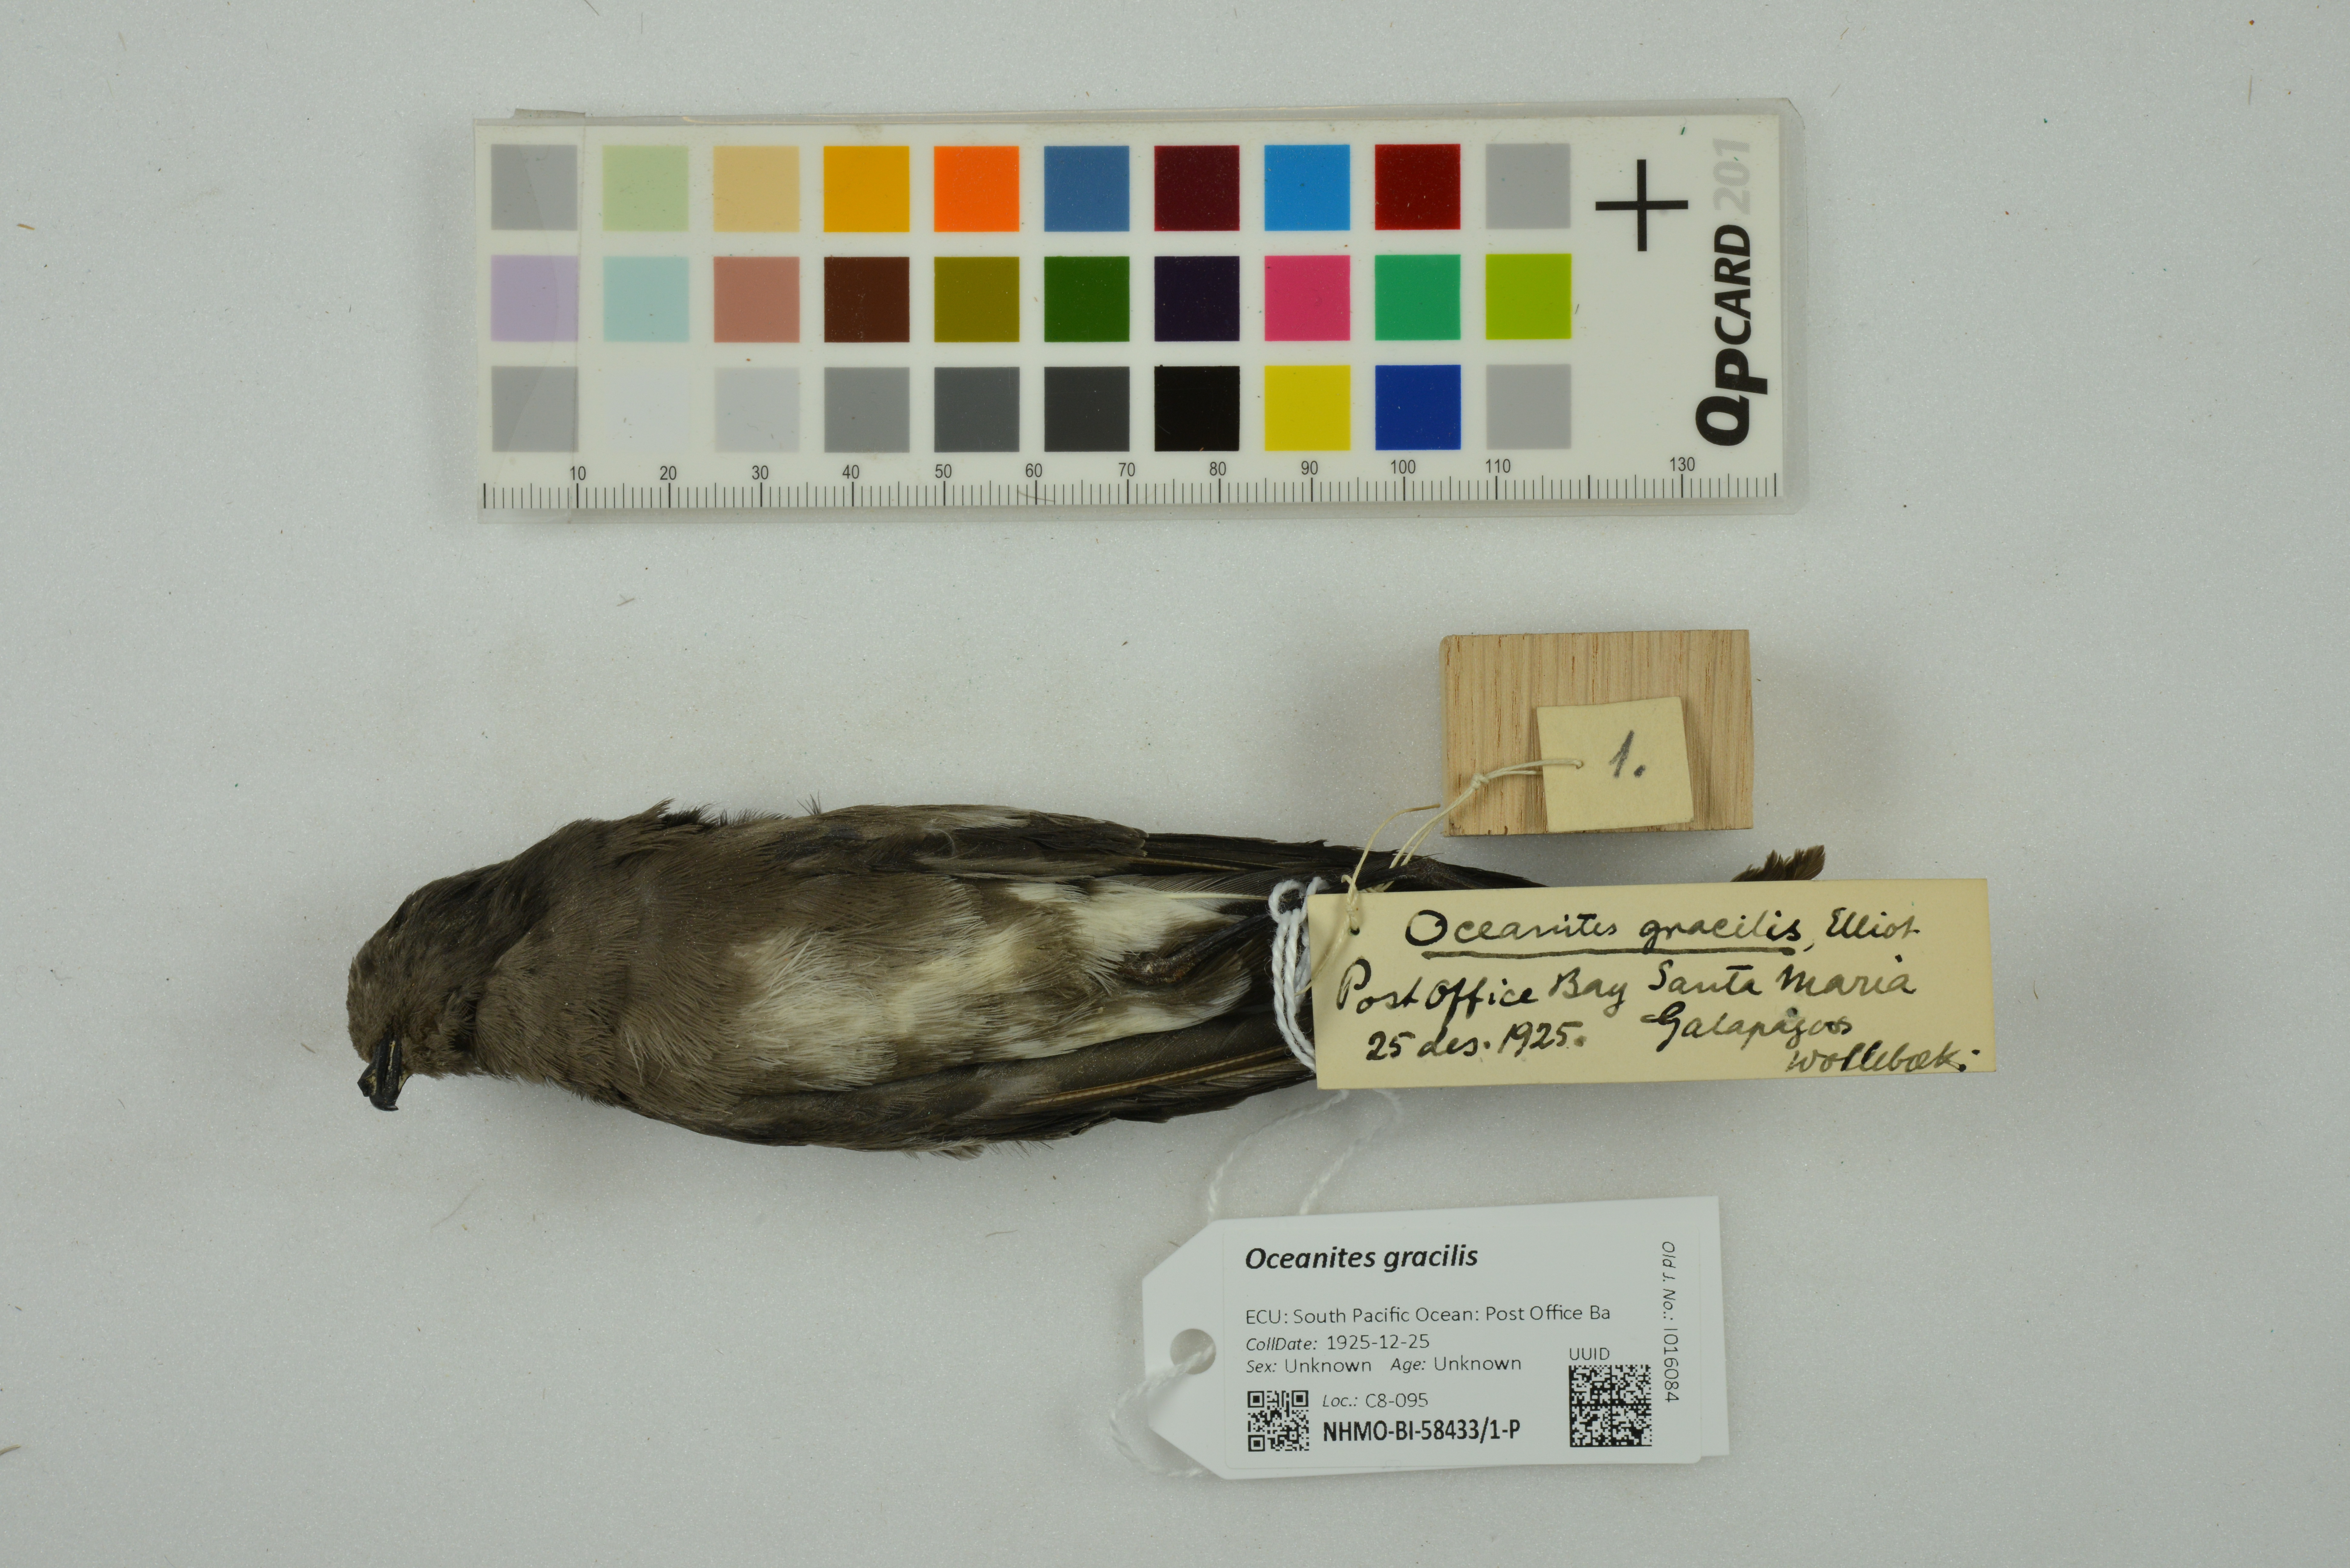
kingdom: Animalia
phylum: Chordata
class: Aves
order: Procellariiformes
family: Hydrobatidae
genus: Oceanites
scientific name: Oceanites gracilis
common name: Elliot's storm-petrel
